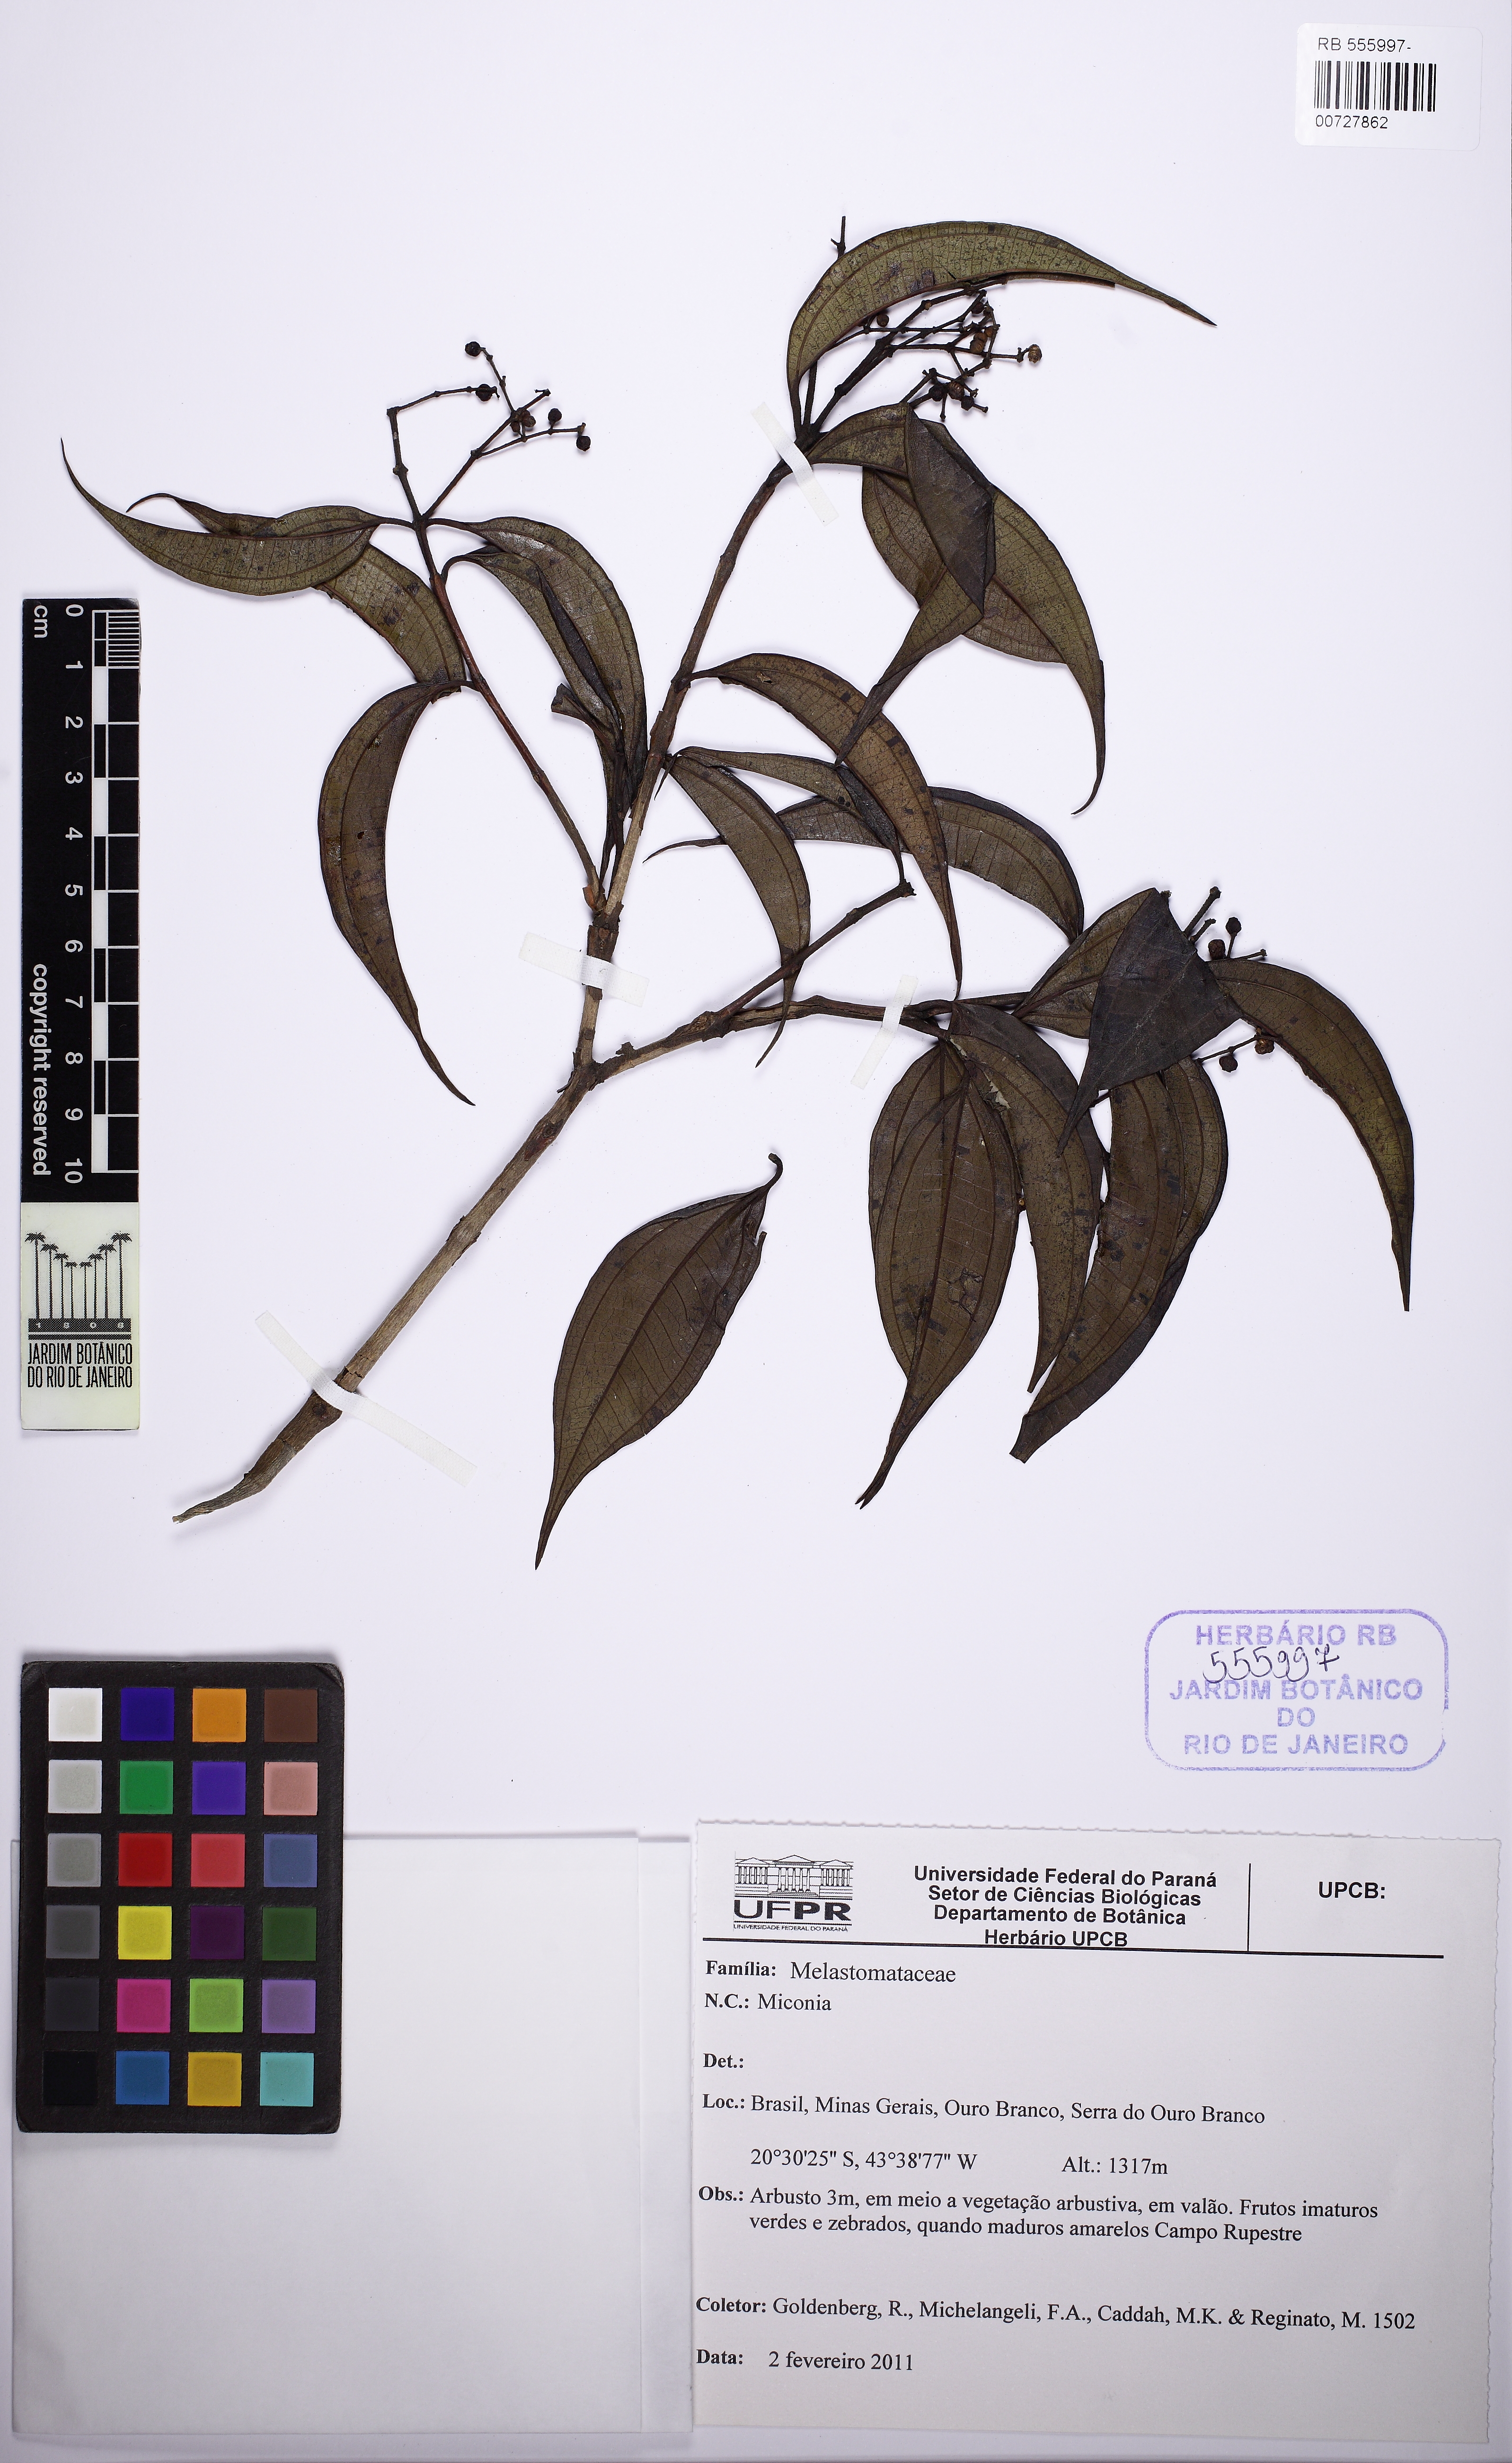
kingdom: Plantae
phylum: Tracheophyta
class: Magnoliopsida
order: Myrtales
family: Melastomataceae
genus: Miconia
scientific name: Miconia
